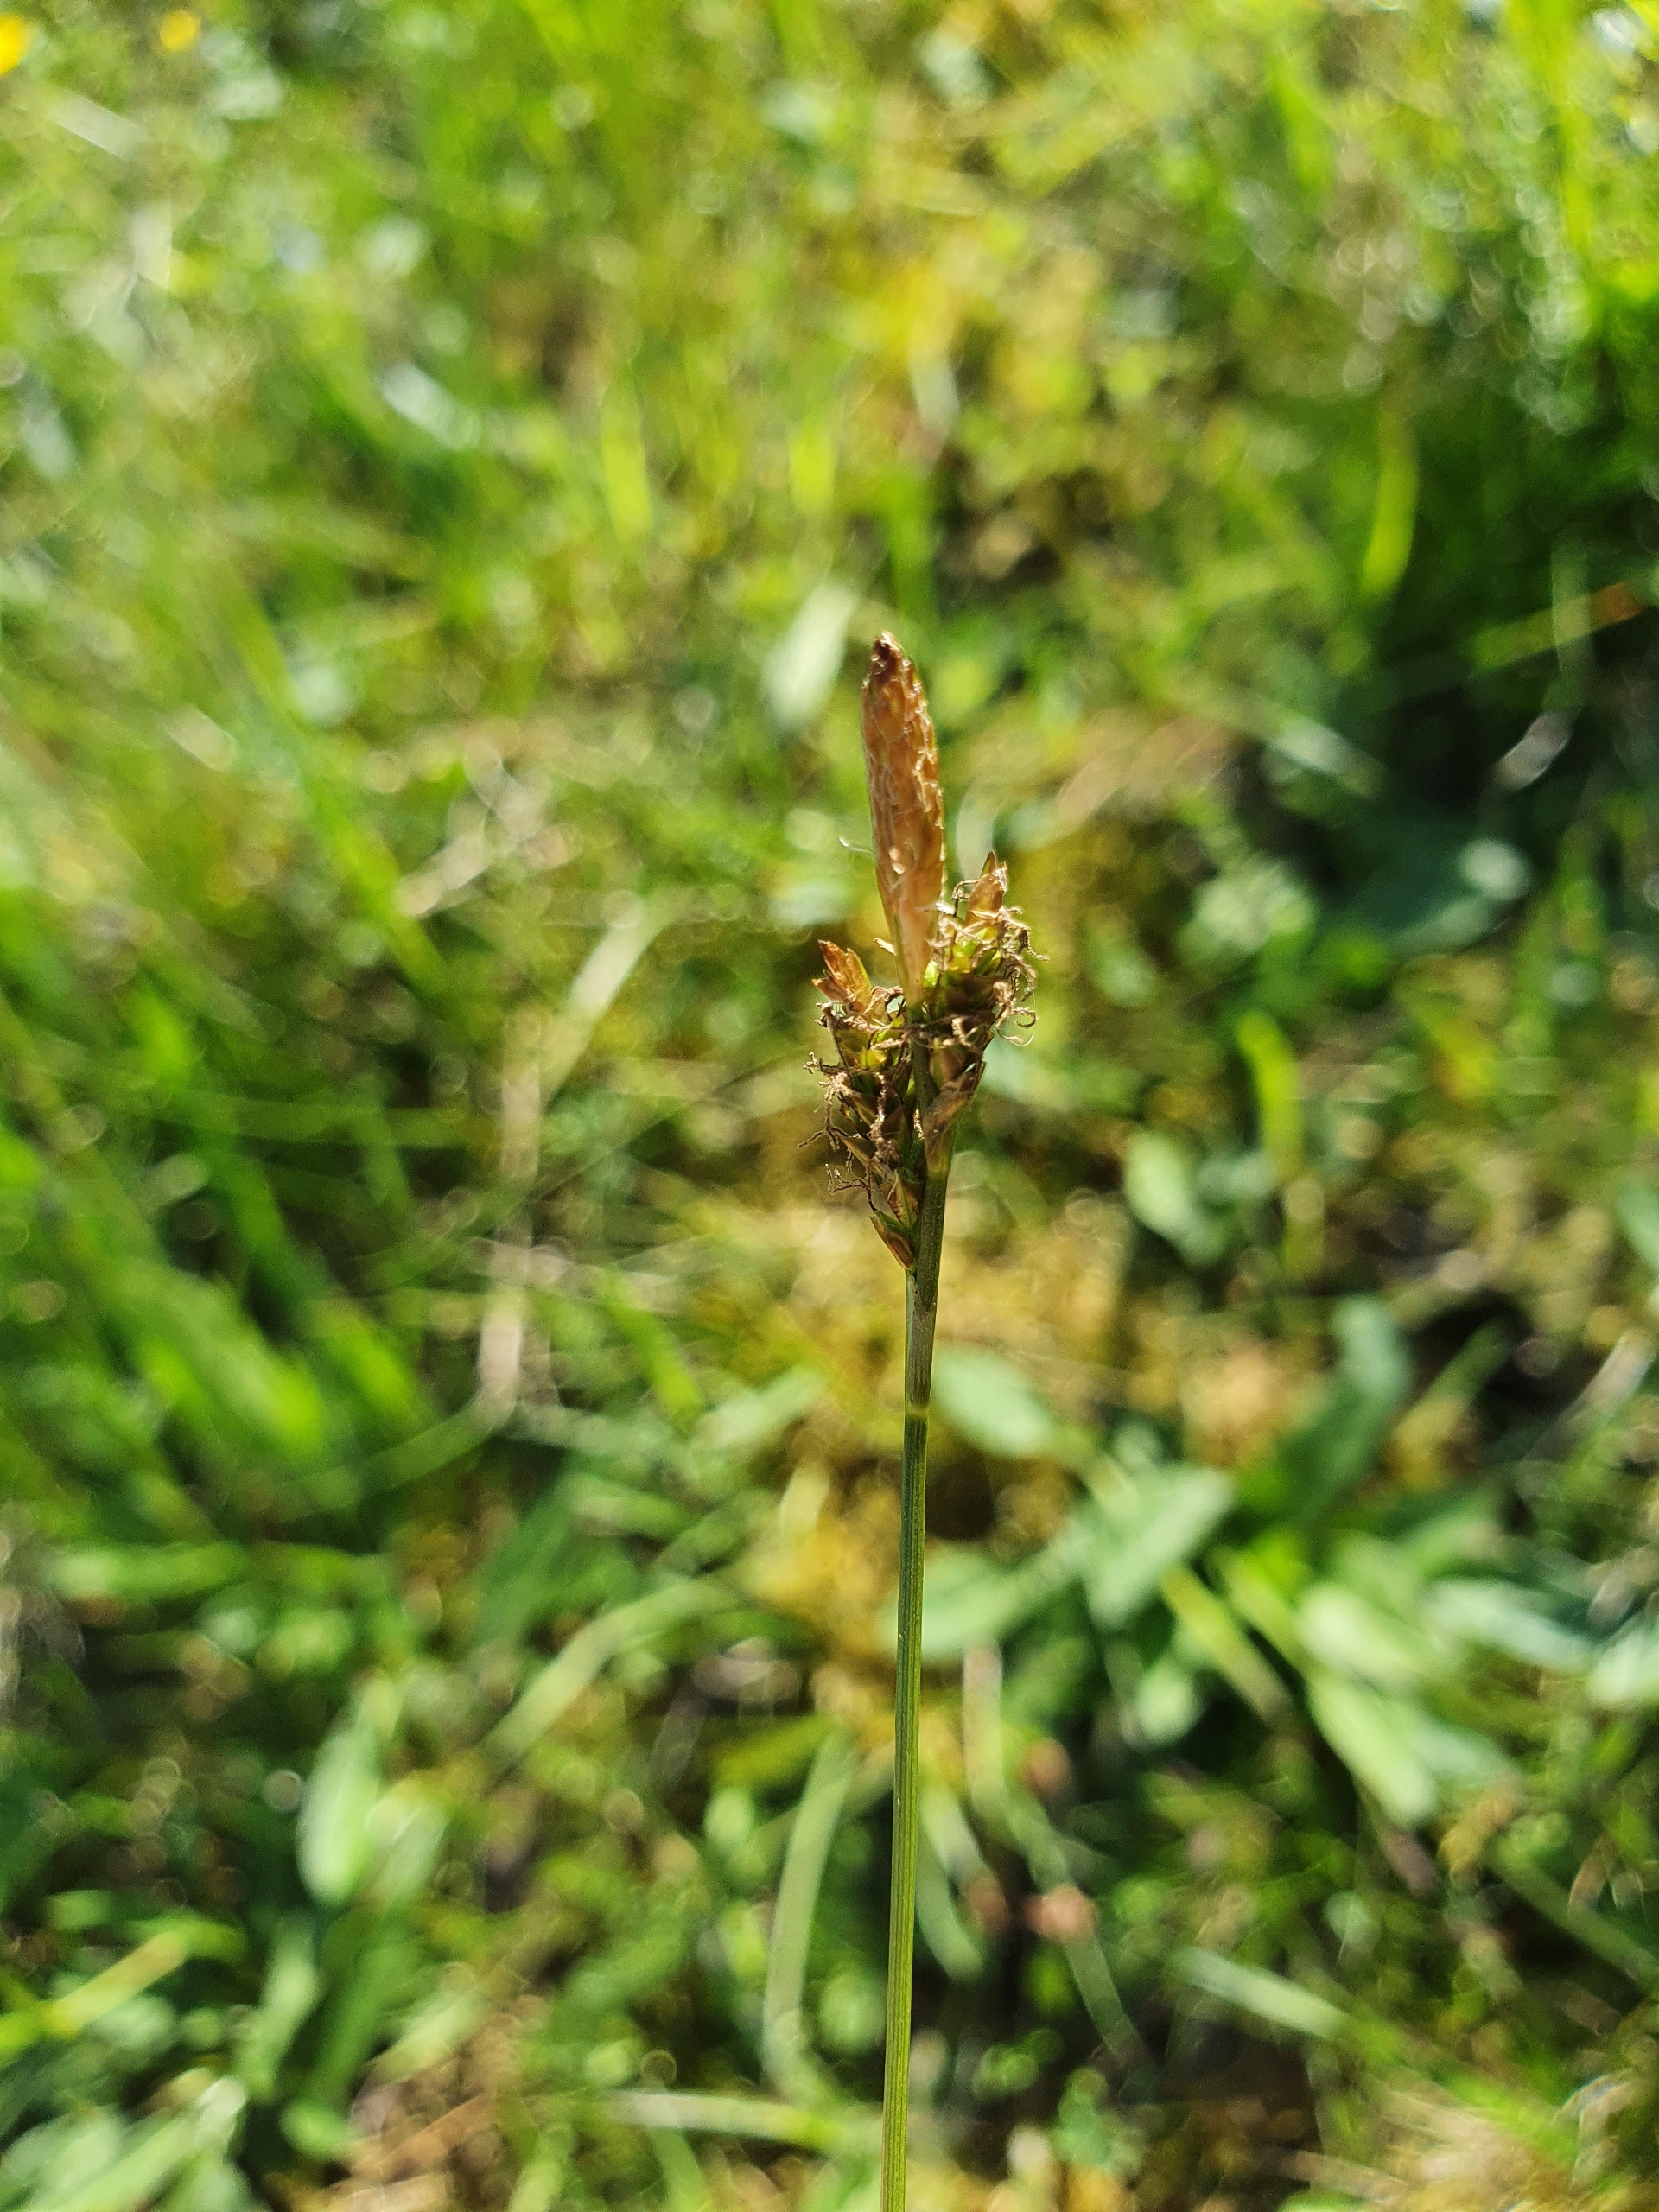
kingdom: Plantae
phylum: Tracheophyta
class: Liliopsida
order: Poales
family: Cyperaceae
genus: Carex
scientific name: Carex caryophyllea
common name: Vår-star
